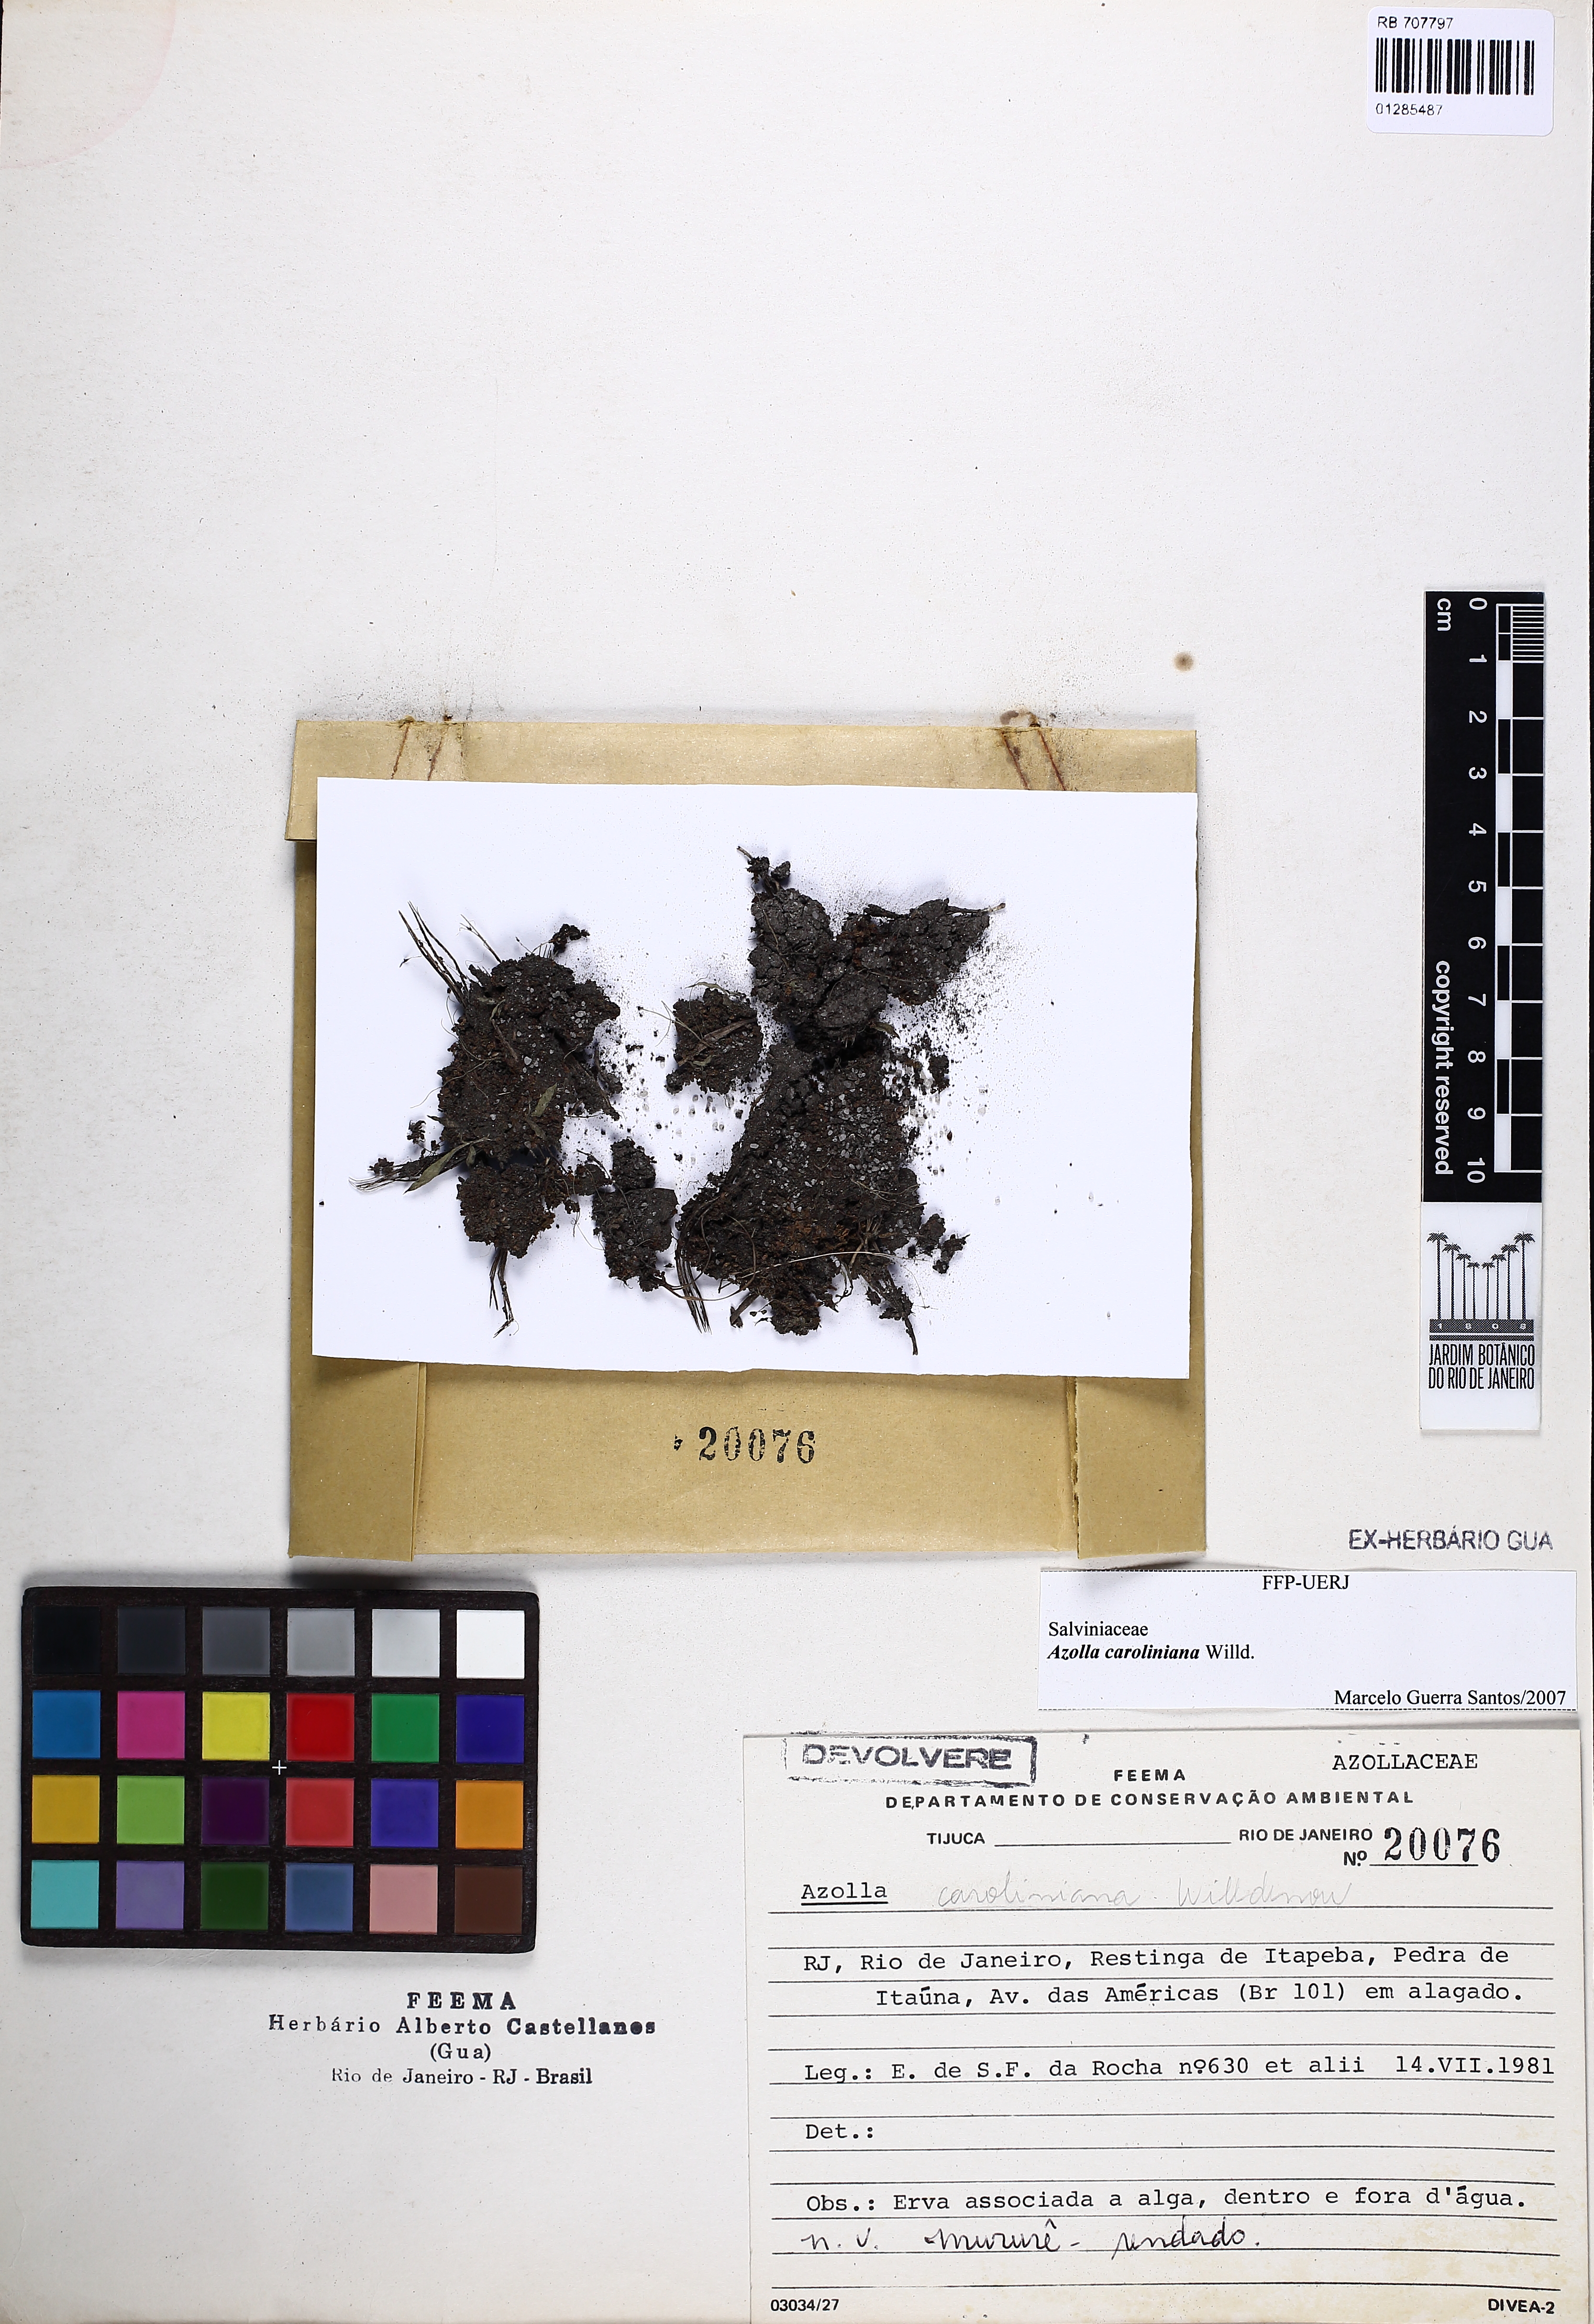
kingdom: Plantae
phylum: Tracheophyta
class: Polypodiopsida
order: Salviniales
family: Salviniaceae
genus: Azolla
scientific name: Azolla caroliniana
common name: Carolina mosquitofern
